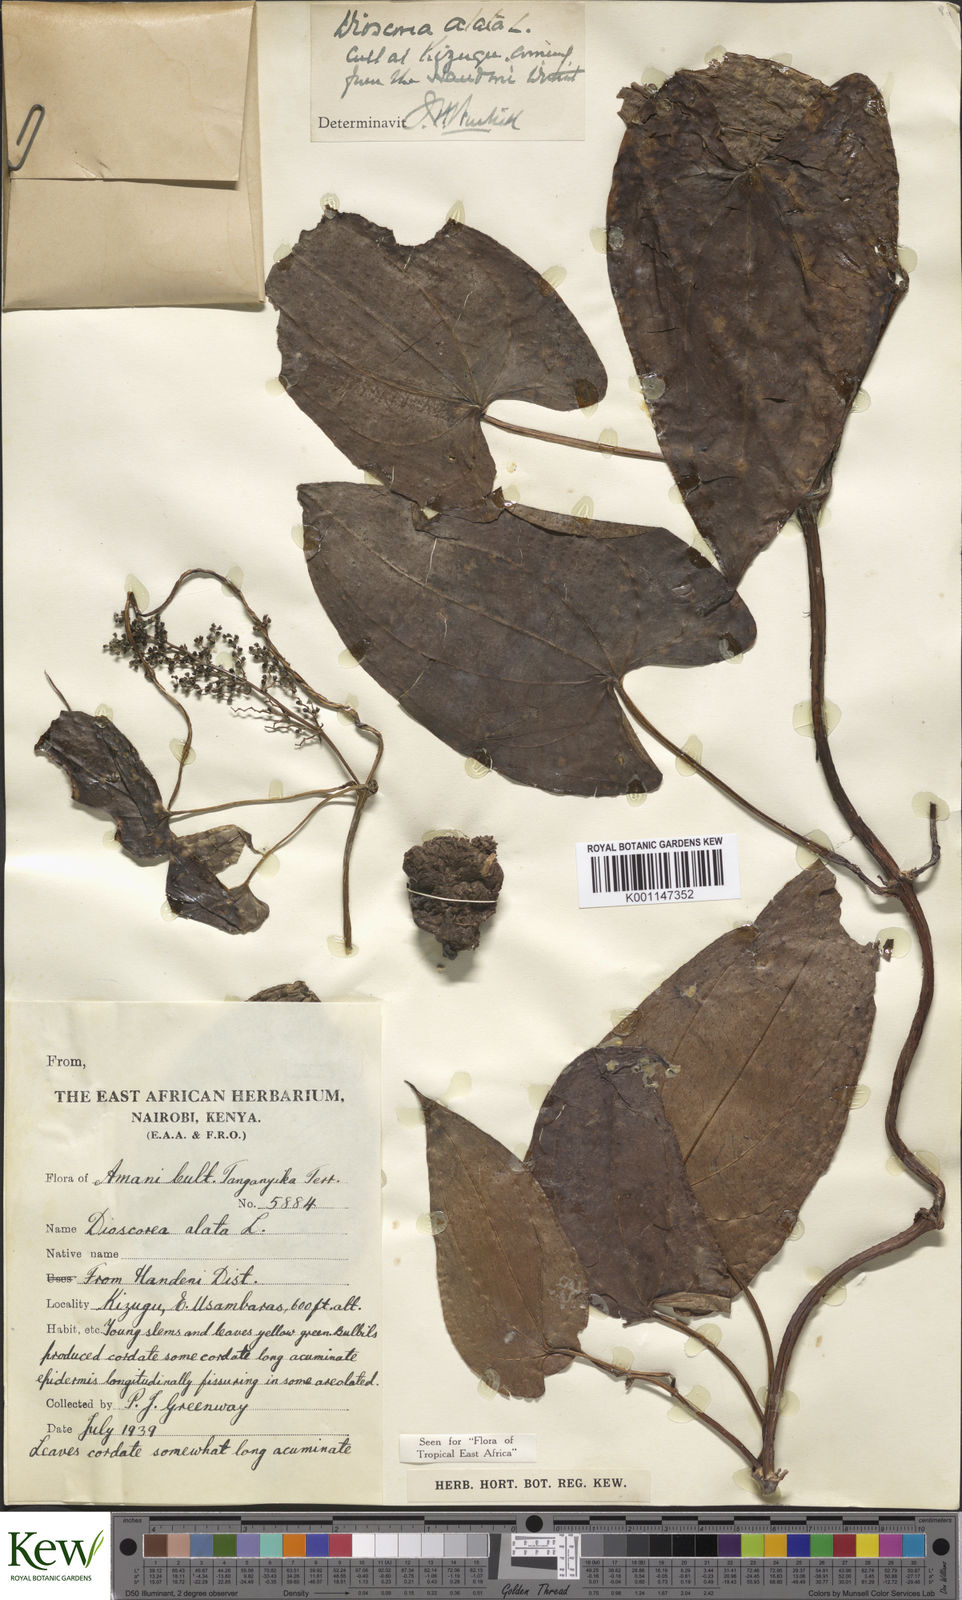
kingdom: Plantae
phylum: Tracheophyta
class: Liliopsida
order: Dioscoreales
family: Dioscoreaceae
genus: Dioscorea
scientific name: Dioscorea alata
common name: Water yam
